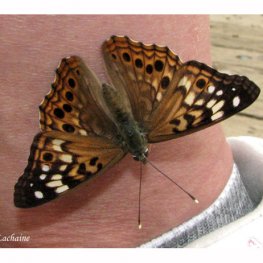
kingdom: Animalia
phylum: Arthropoda
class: Insecta
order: Lepidoptera
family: Nymphalidae
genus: Asterocampa
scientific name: Asterocampa celtis
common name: Hackberry Emperor
